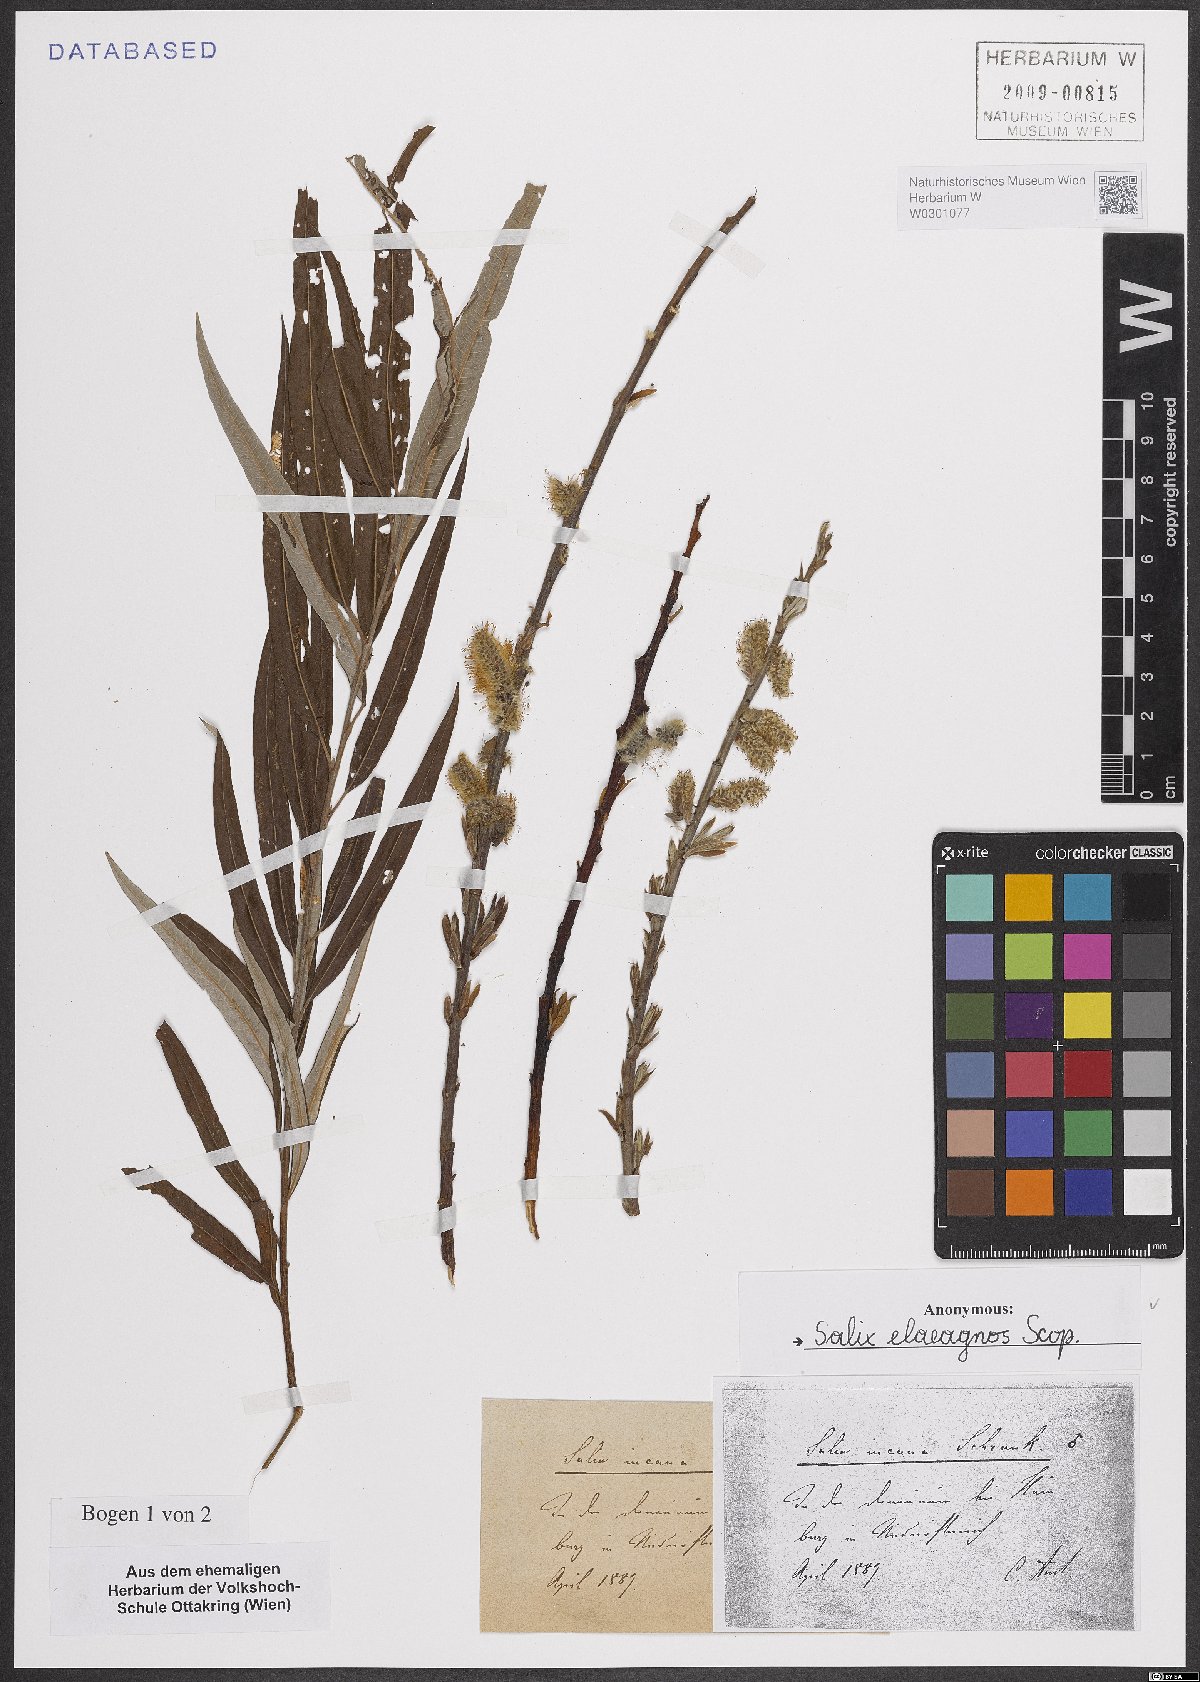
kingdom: Plantae
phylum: Tracheophyta
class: Magnoliopsida
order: Malpighiales
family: Salicaceae
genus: Salix
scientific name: Salix eleagnos
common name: Elaeagnus willow
